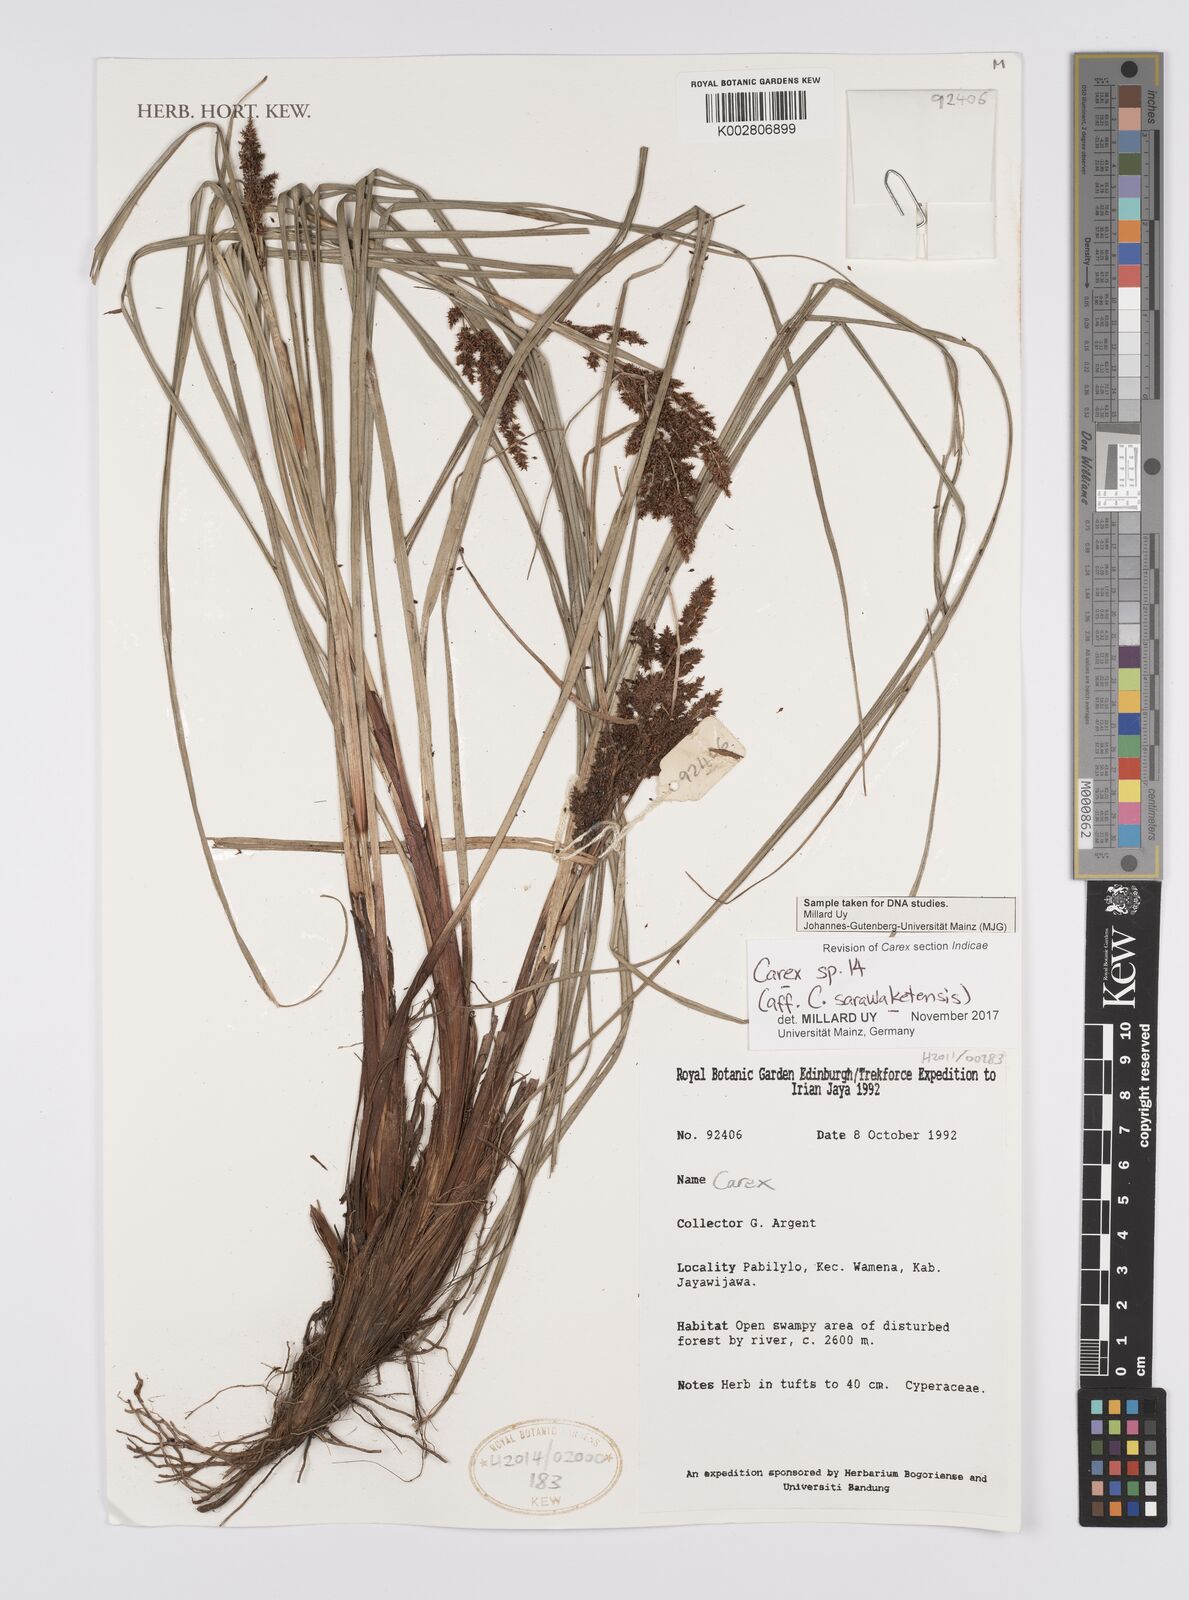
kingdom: Plantae
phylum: Tracheophyta
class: Liliopsida
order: Poales
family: Cyperaceae
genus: Carex
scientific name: Carex sarawaketensis
